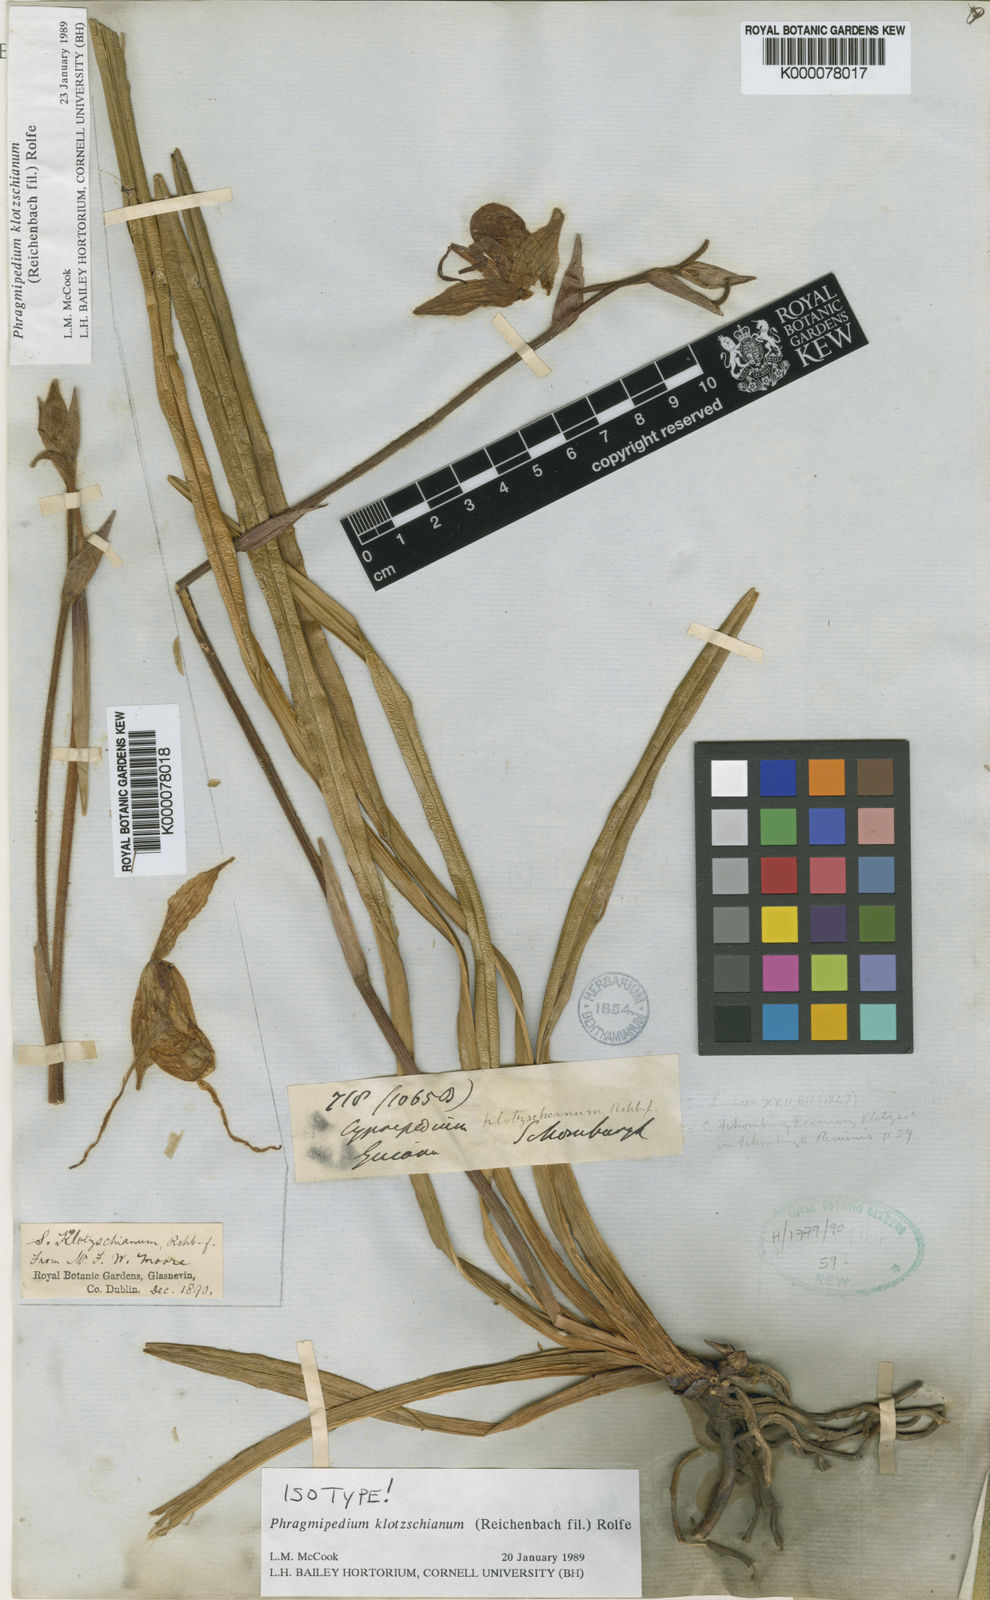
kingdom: Plantae
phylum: Tracheophyta
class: Liliopsida
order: Asparagales
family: Orchidaceae
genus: Phragmipedium
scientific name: Phragmipedium klotzschianum
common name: Klotsch's phragmipedium
